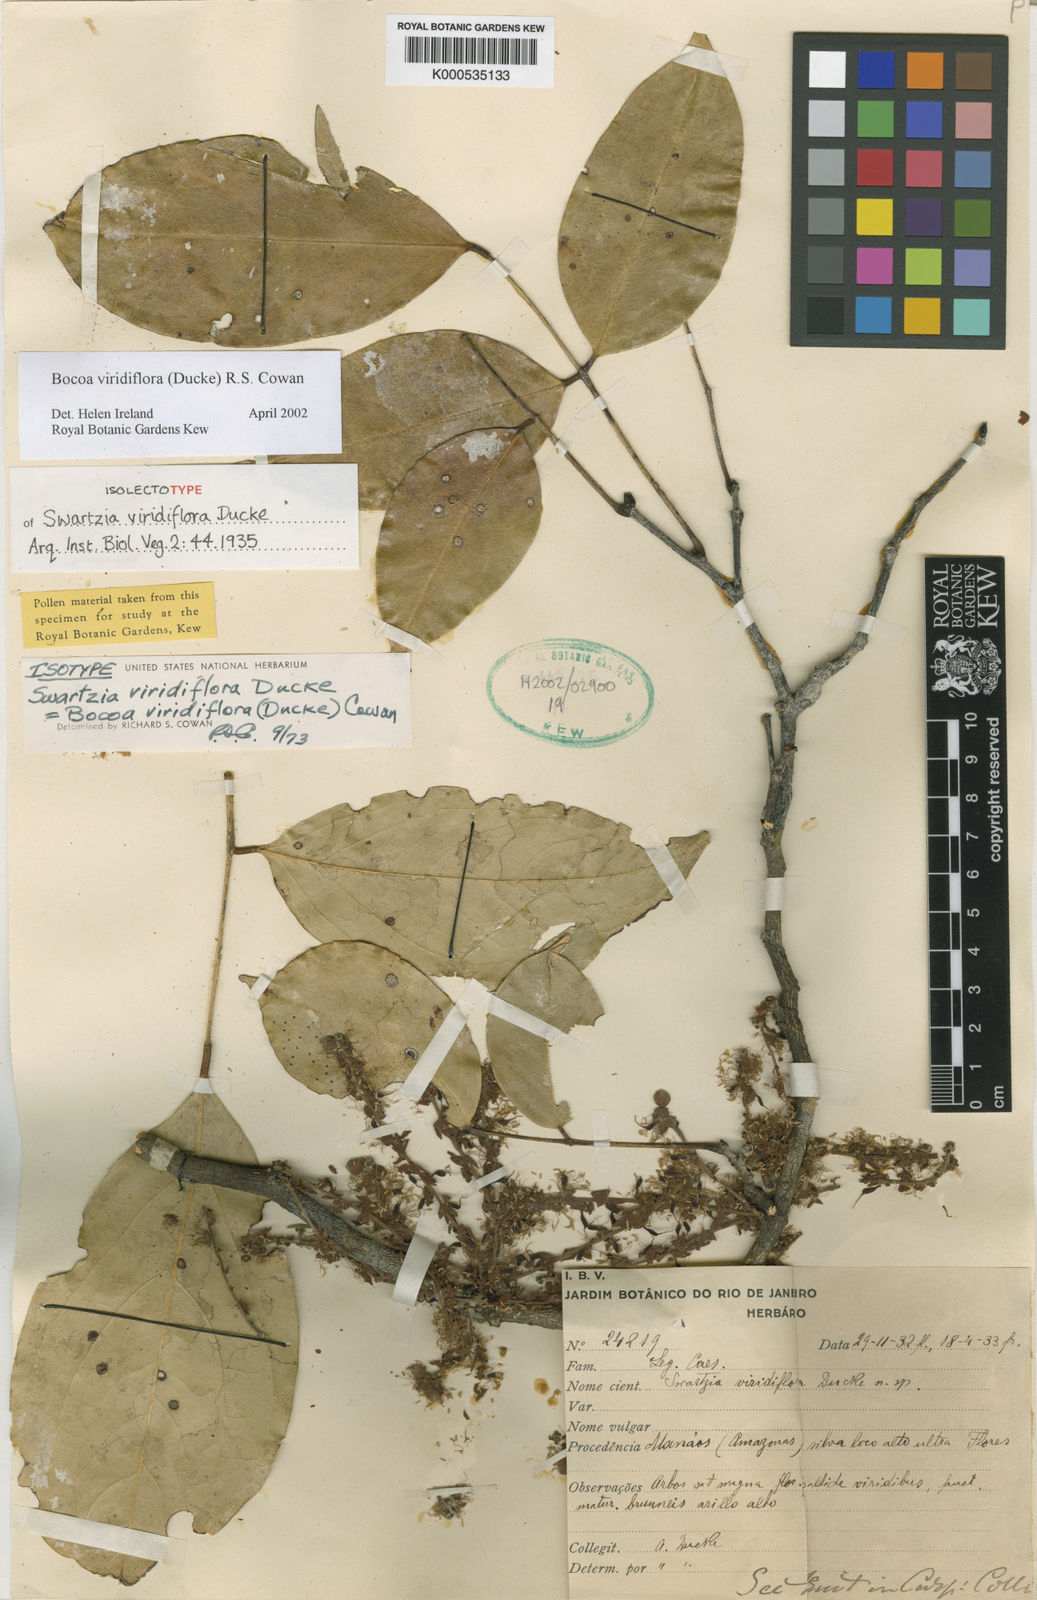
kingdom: Plantae
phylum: Tracheophyta
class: Magnoliopsida
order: Fabales
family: Fabaceae
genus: Bocoa
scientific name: Bocoa viridiflora
